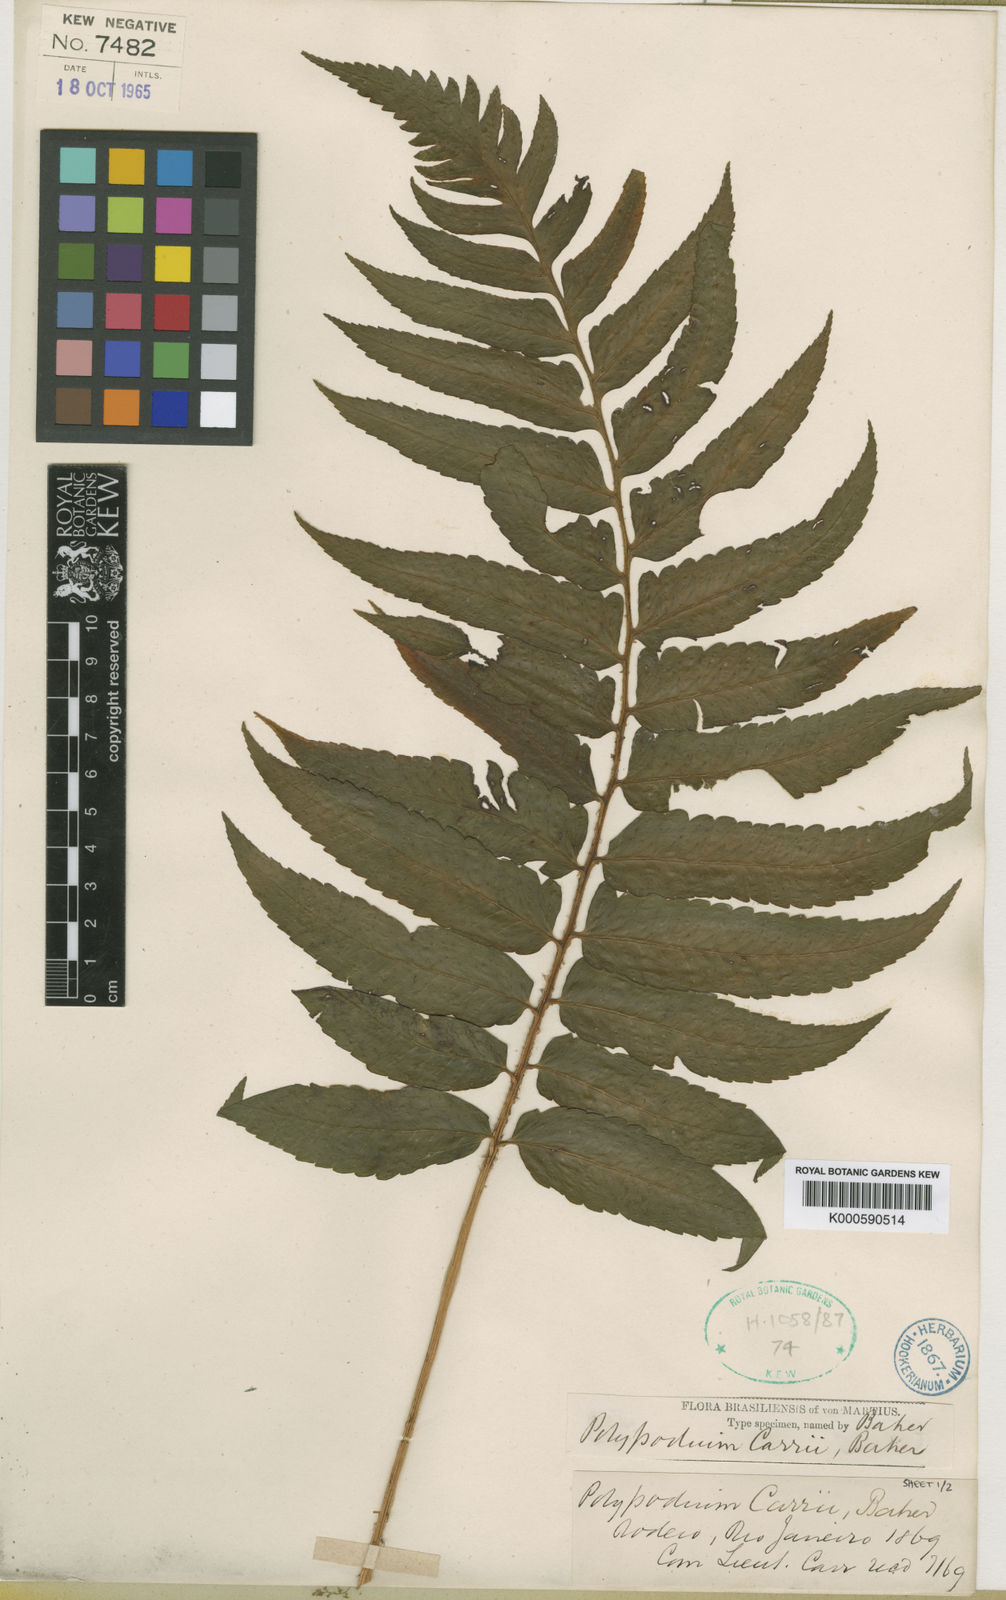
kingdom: Plantae
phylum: Tracheophyta
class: Polypodiopsida
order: Polypodiales
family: Dryopteridaceae
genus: Stigmatopteris
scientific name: Stigmatopteris
